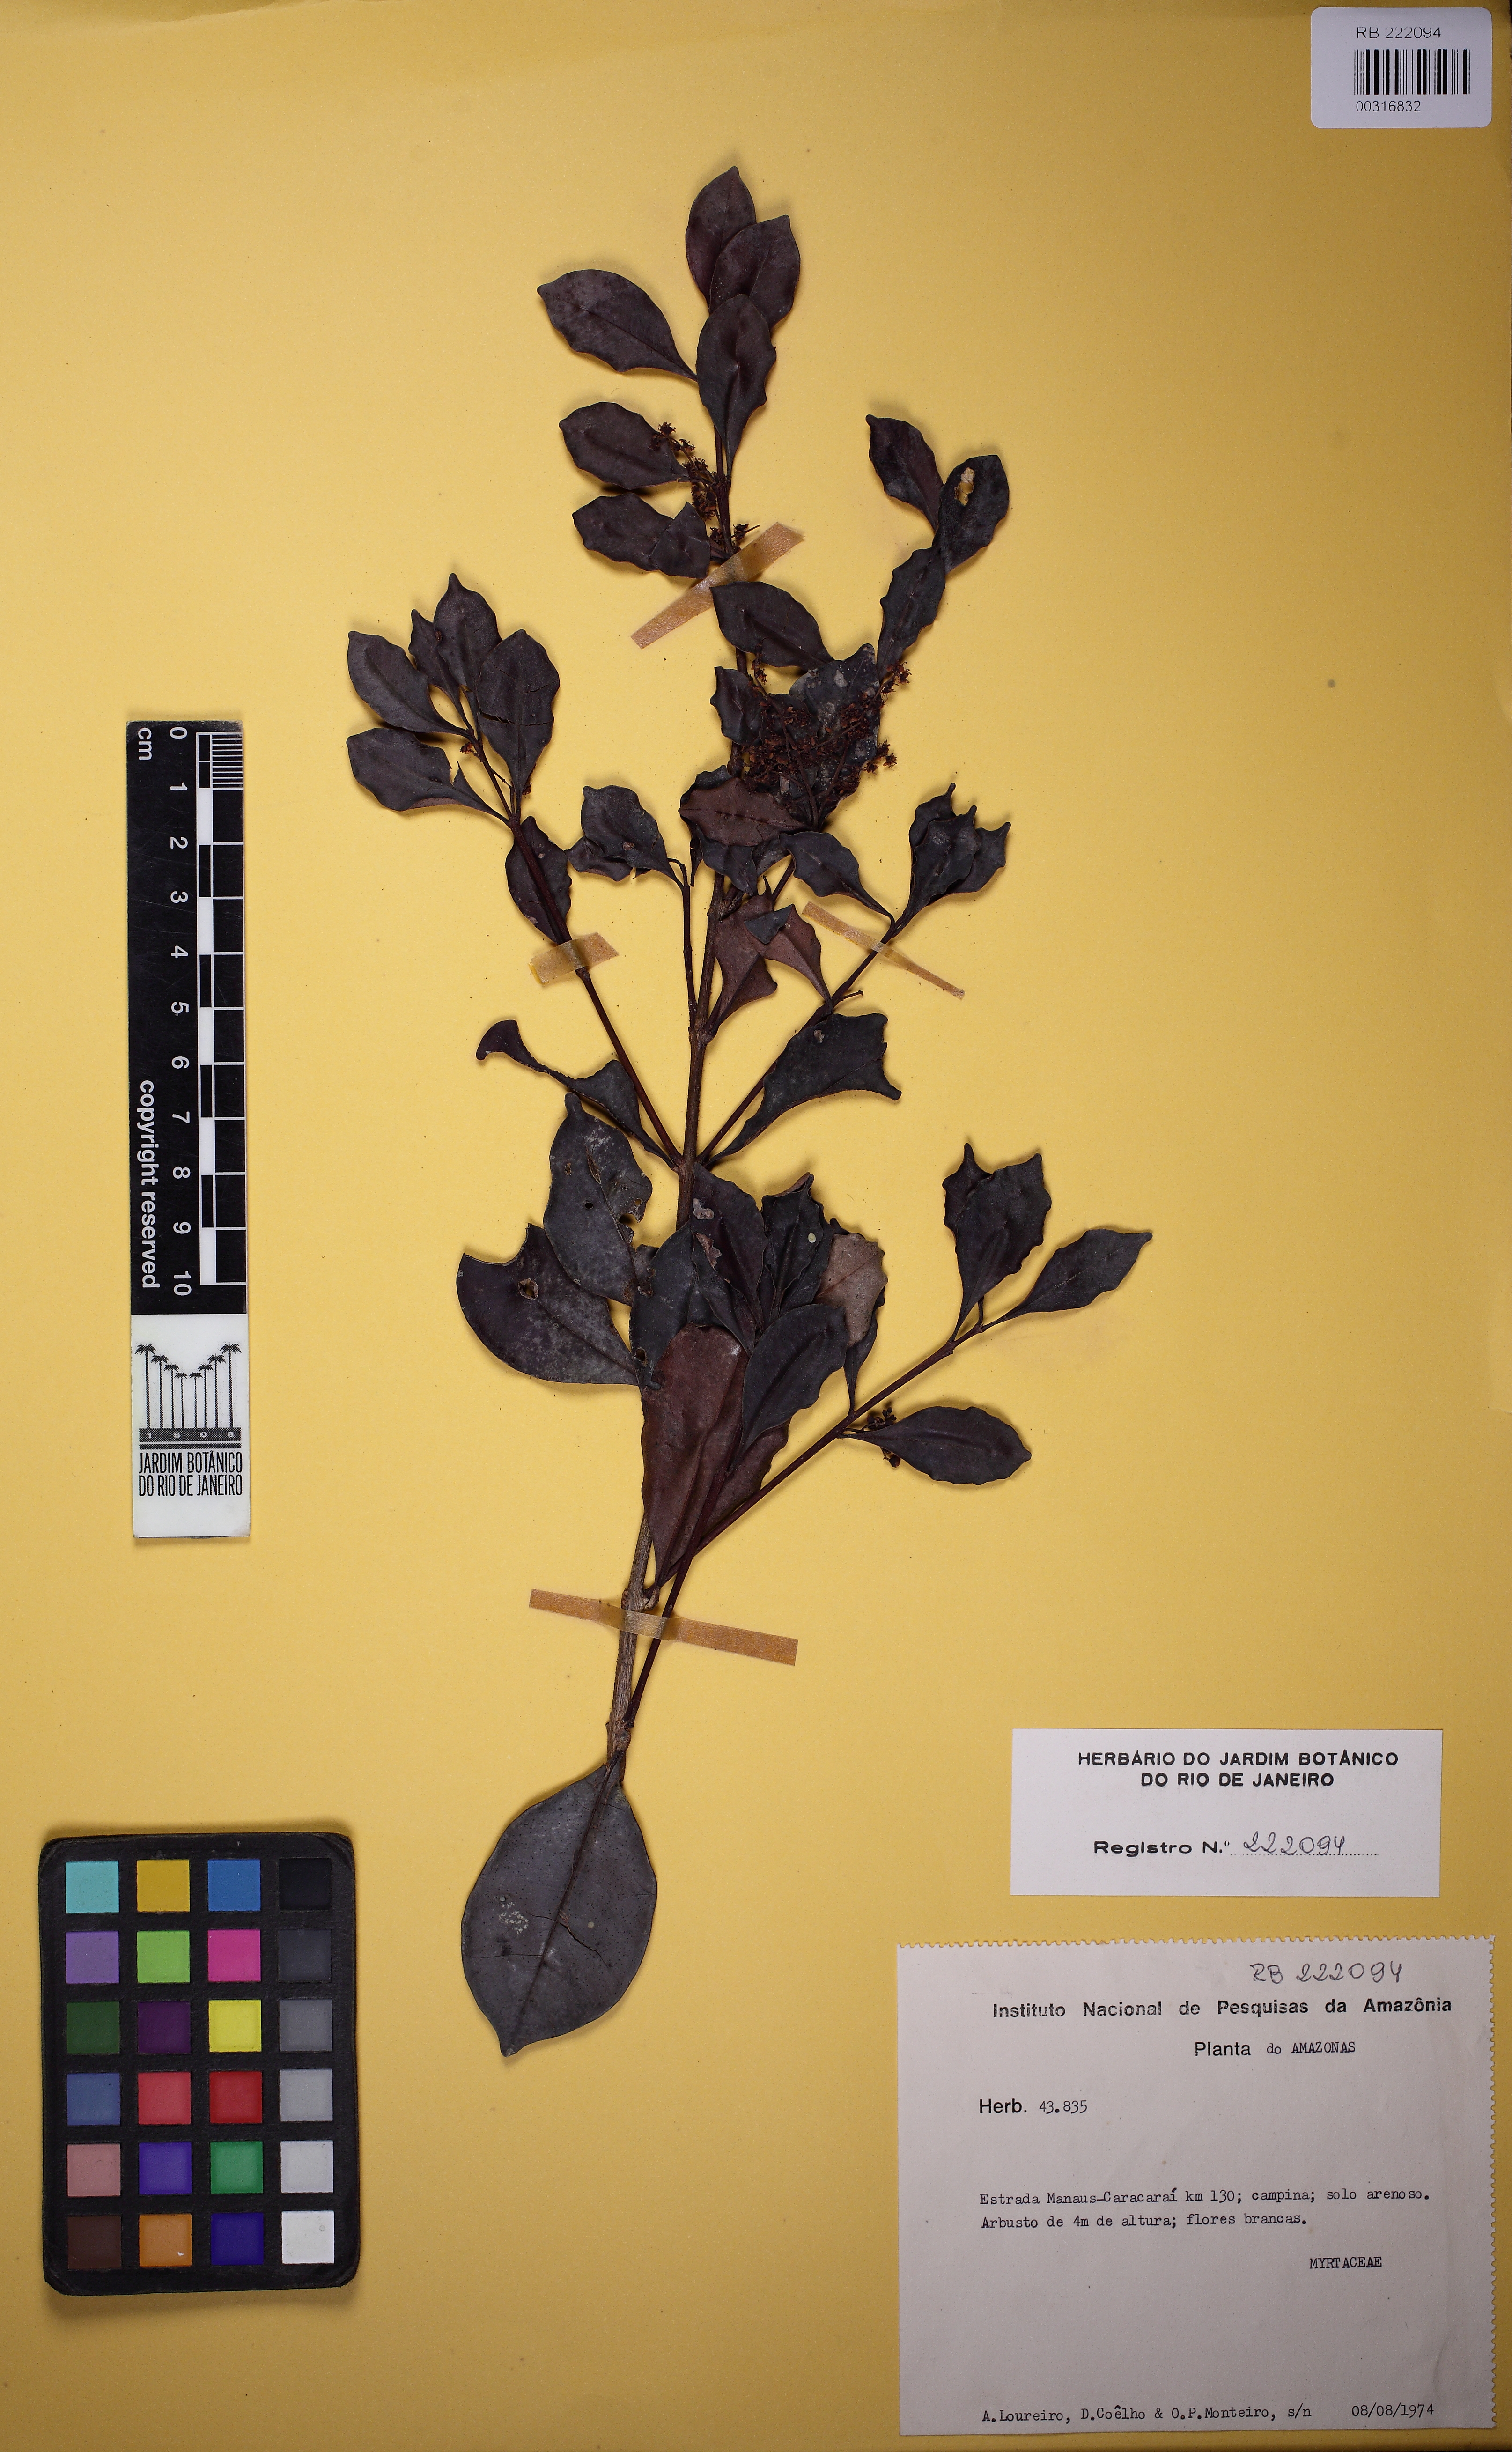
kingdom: Plantae
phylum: Tracheophyta
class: Magnoliopsida
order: Myrtales
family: Myrtaceae
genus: Myrcia
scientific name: Myrcia
